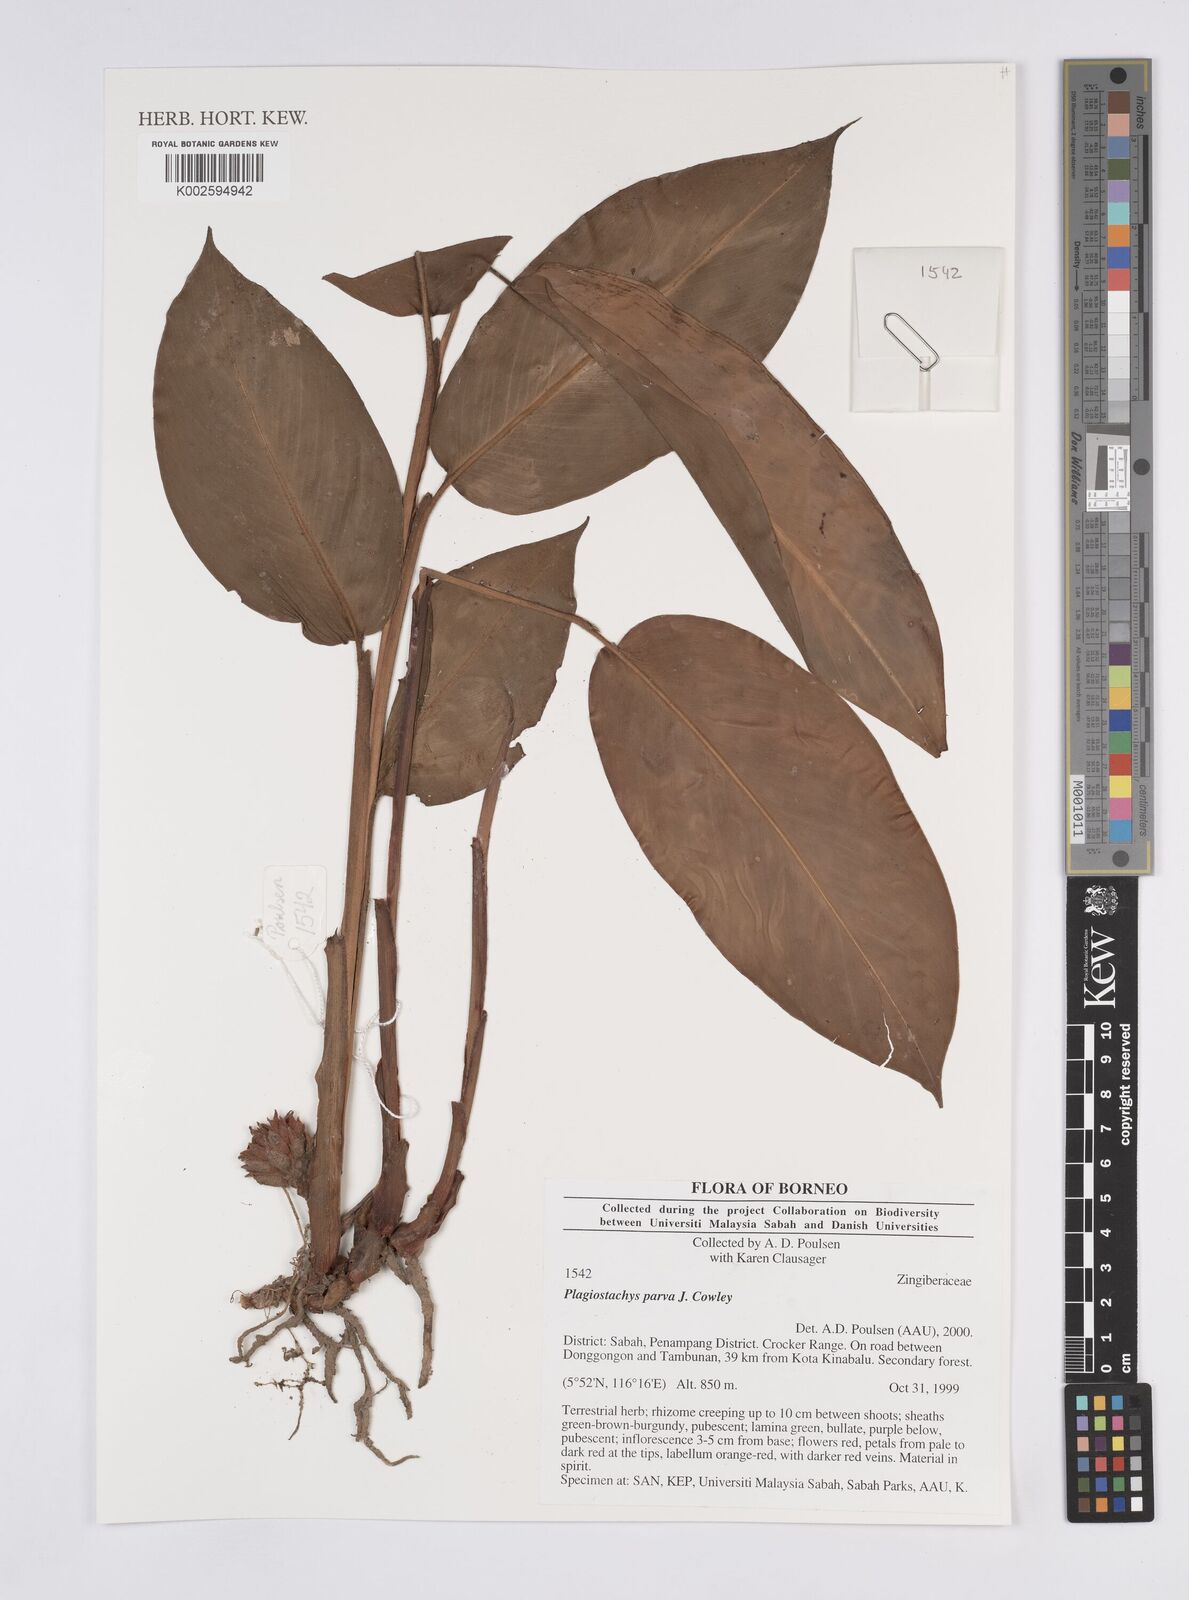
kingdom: Plantae
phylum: Tracheophyta
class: Liliopsida
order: Zingiberales
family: Zingiberaceae
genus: Plagiostachys
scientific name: Plagiostachys parva
